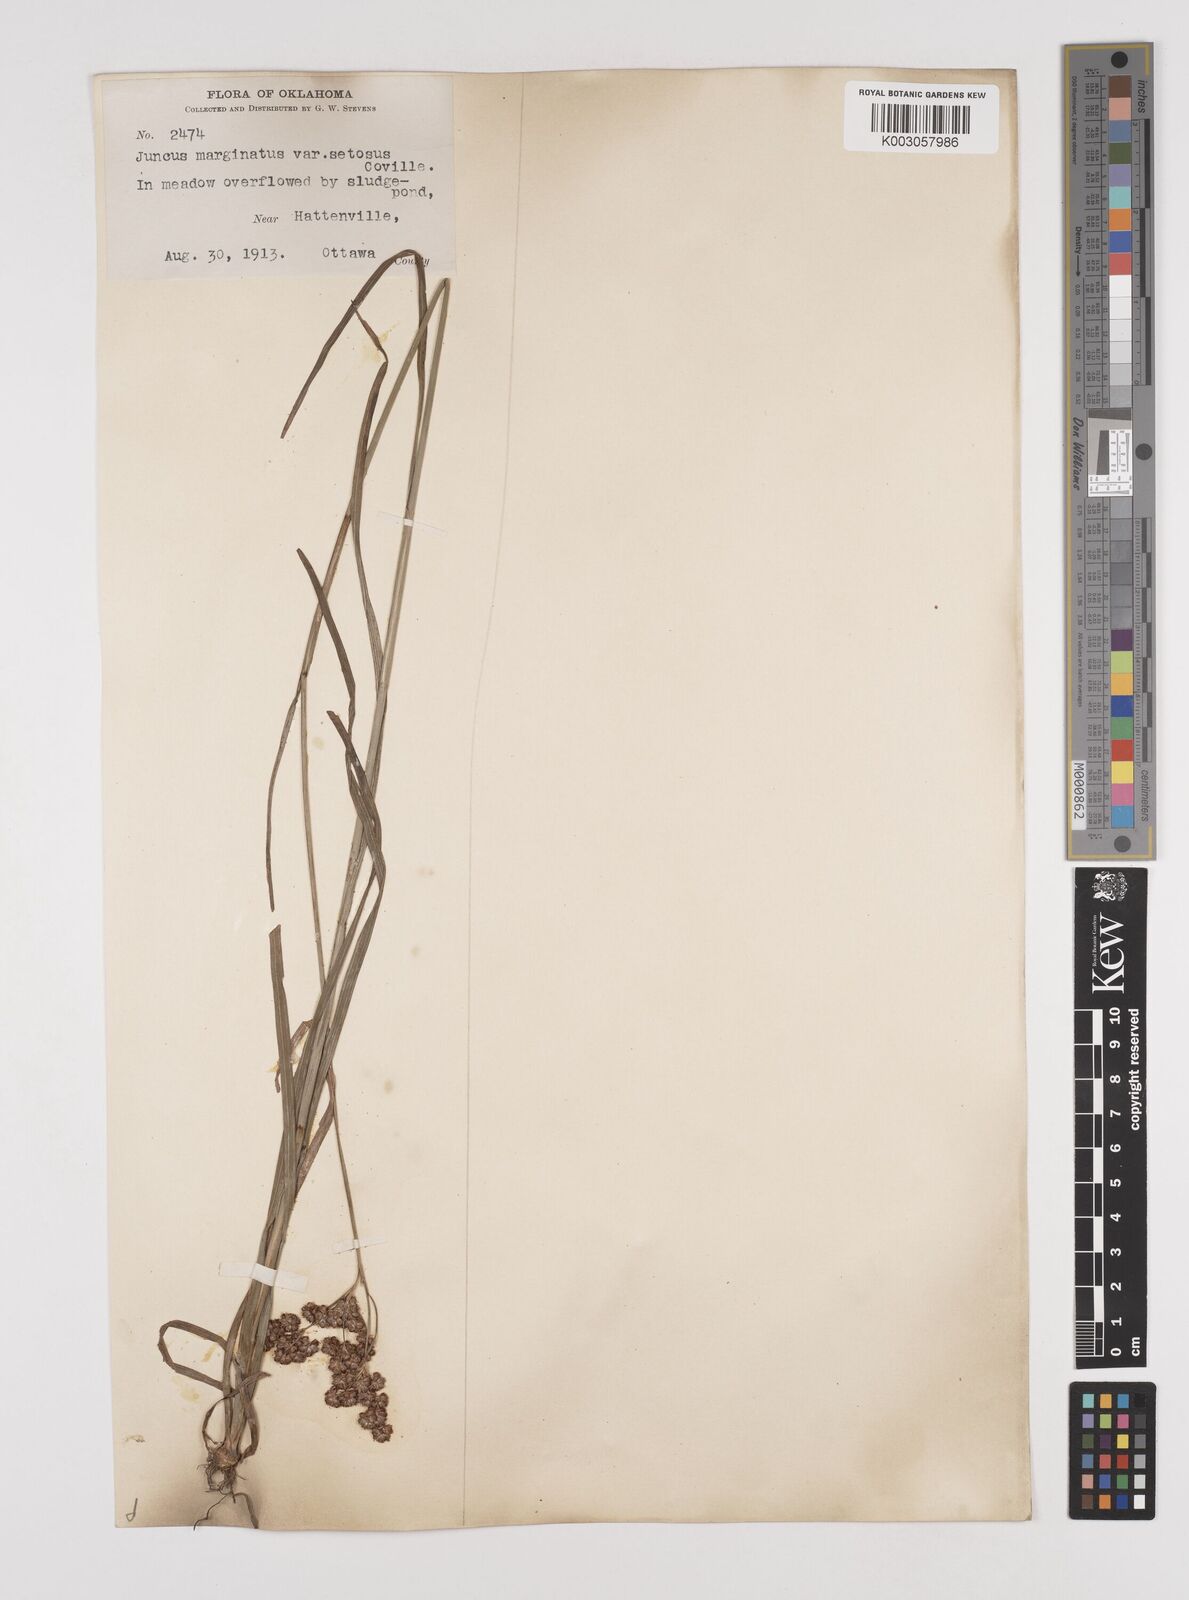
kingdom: Plantae
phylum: Tracheophyta
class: Liliopsida
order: Poales
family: Juncaceae
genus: Juncus
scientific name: Juncus marginatus
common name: Grass-leaf rush
